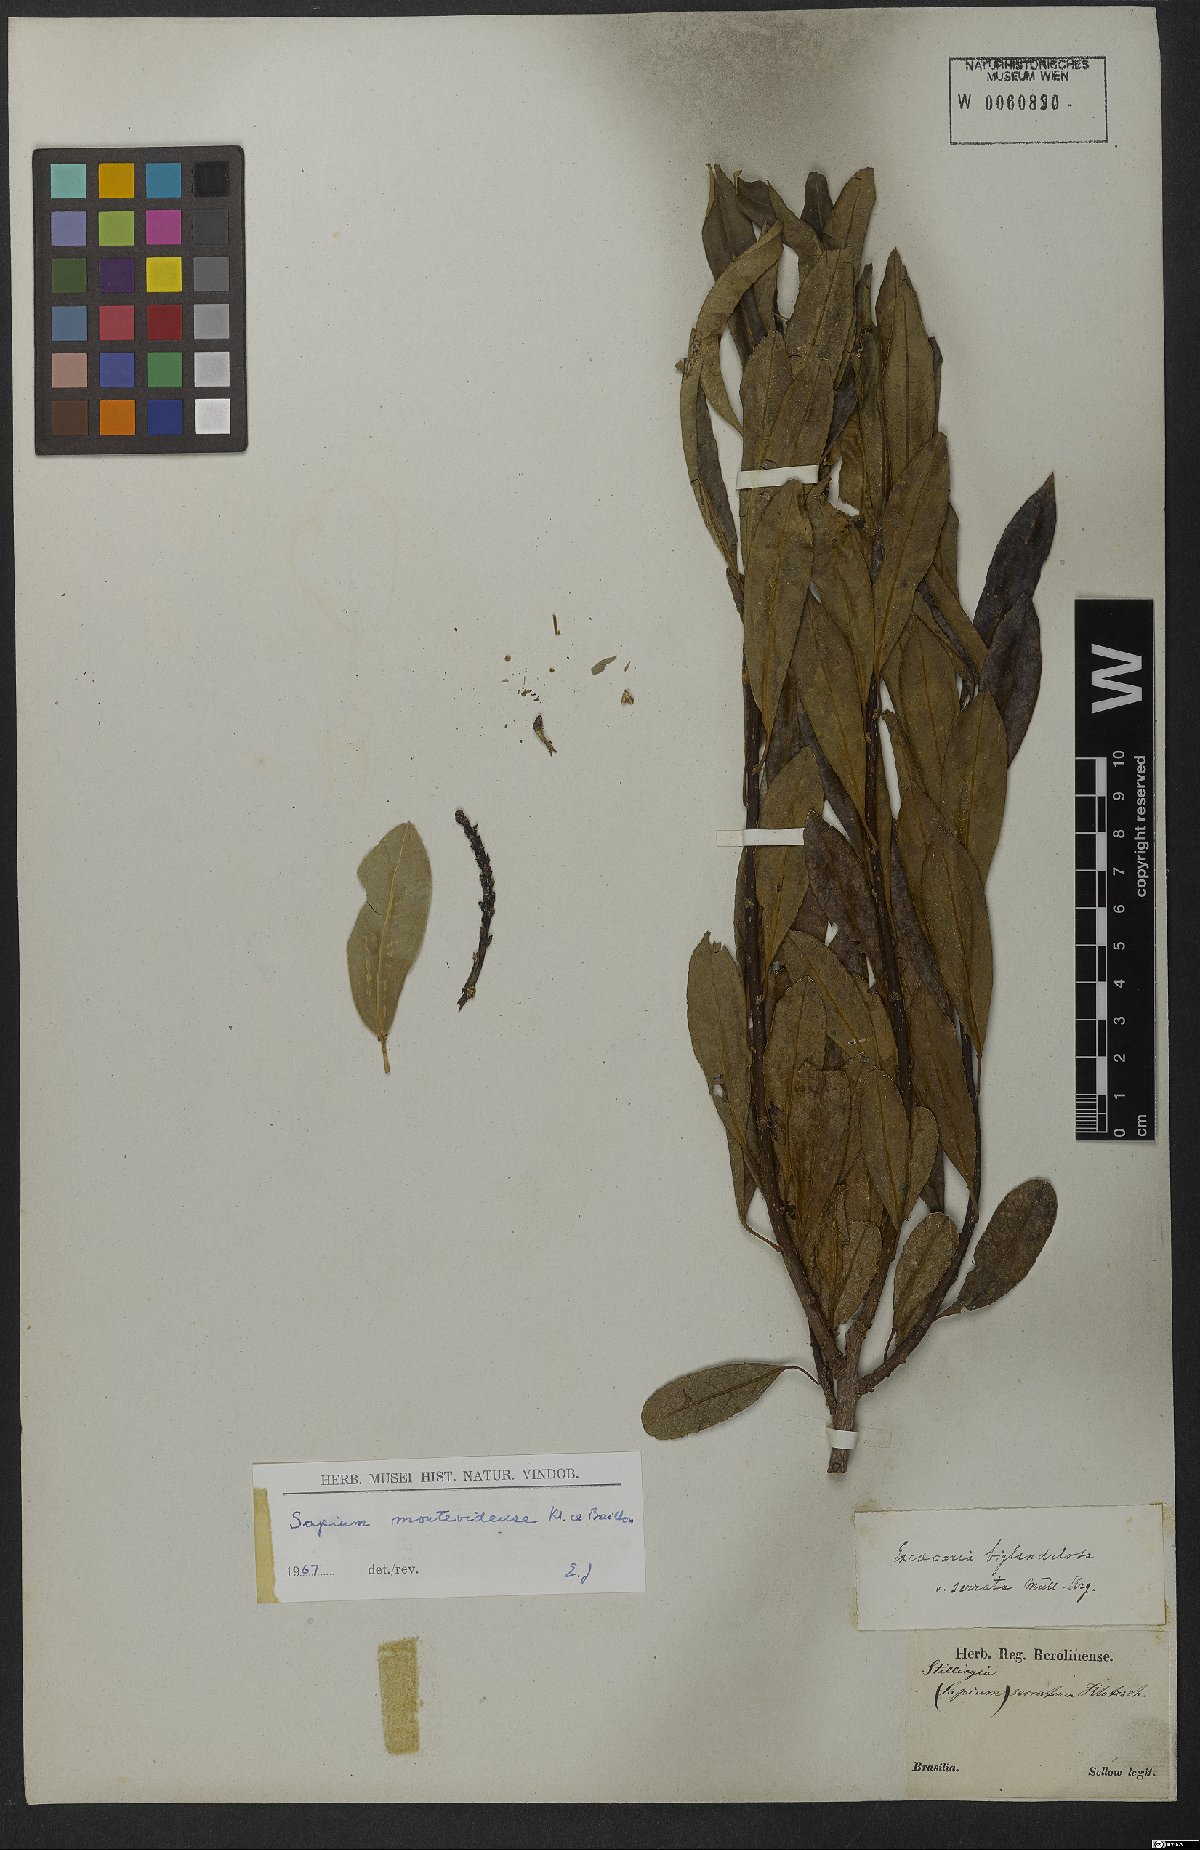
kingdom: Plantae
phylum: Tracheophyta
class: Magnoliopsida
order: Malpighiales
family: Euphorbiaceae
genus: Sapium
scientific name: Sapium glandulosum
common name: Milktree
